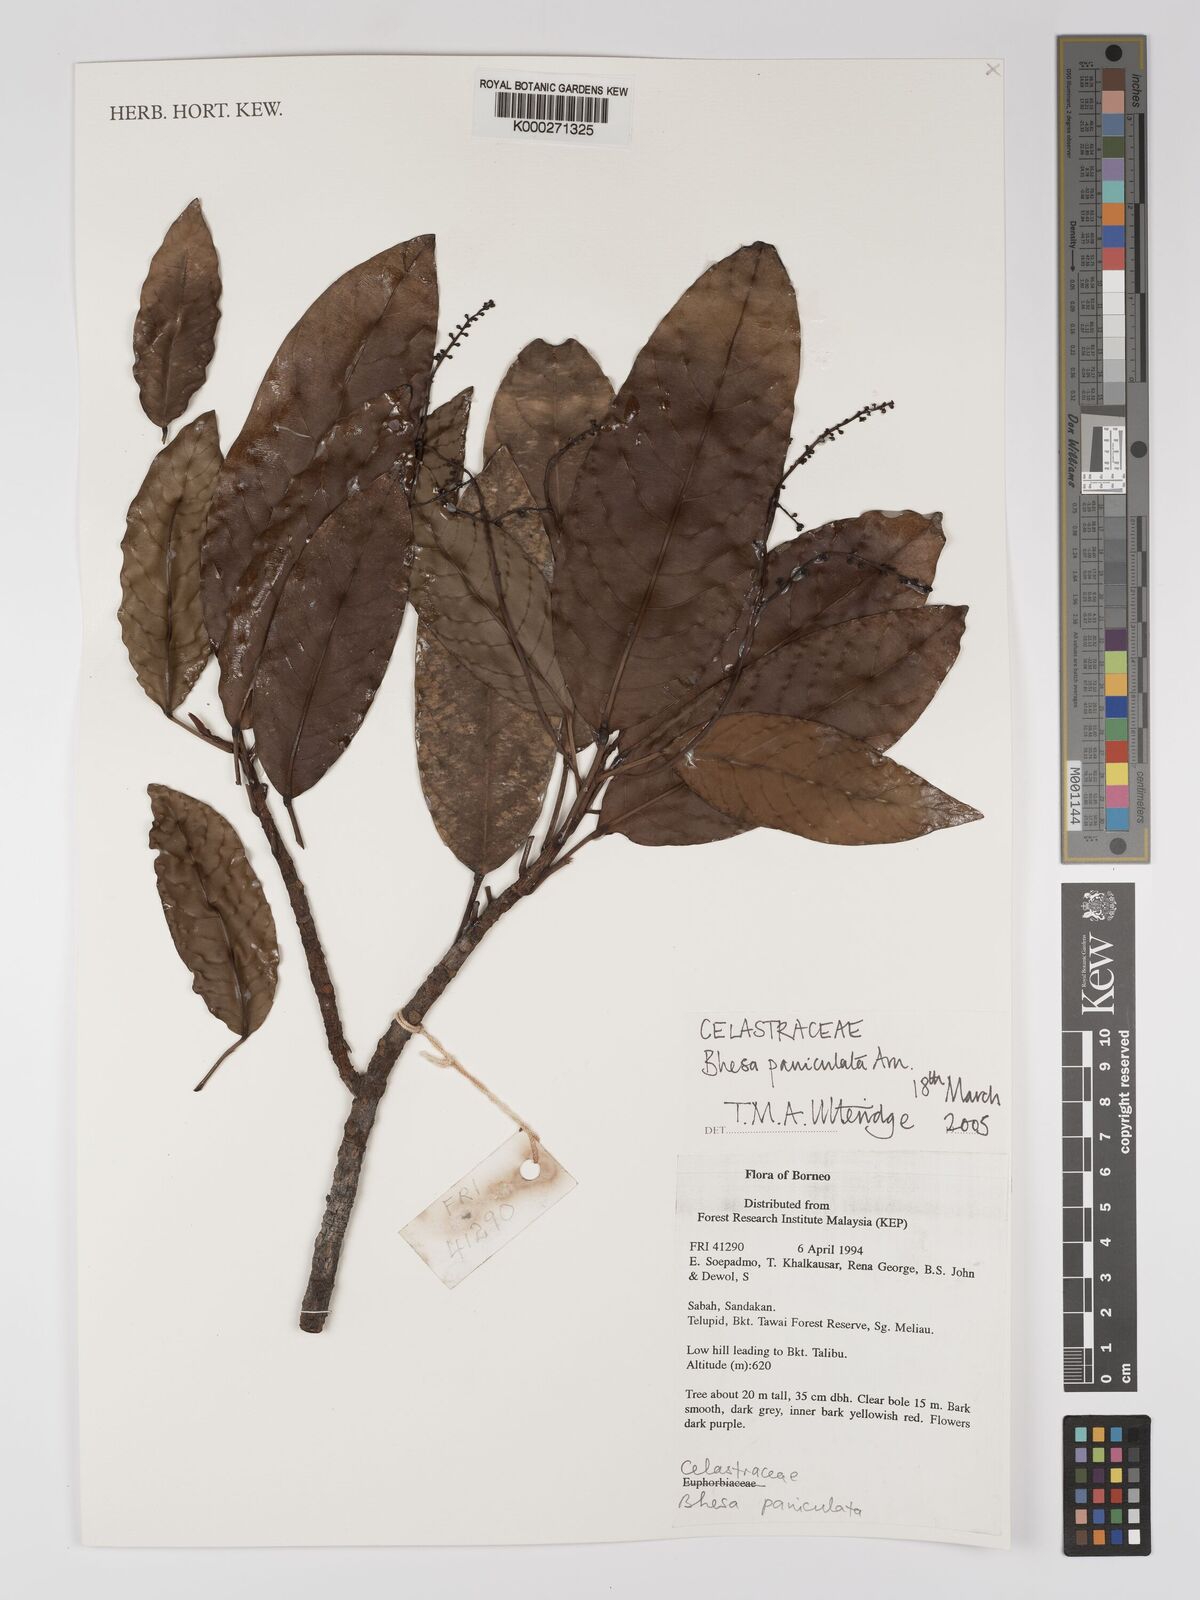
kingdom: Plantae
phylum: Tracheophyta
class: Magnoliopsida
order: Malpighiales
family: Centroplacaceae
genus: Bhesa
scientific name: Bhesa paniculata
